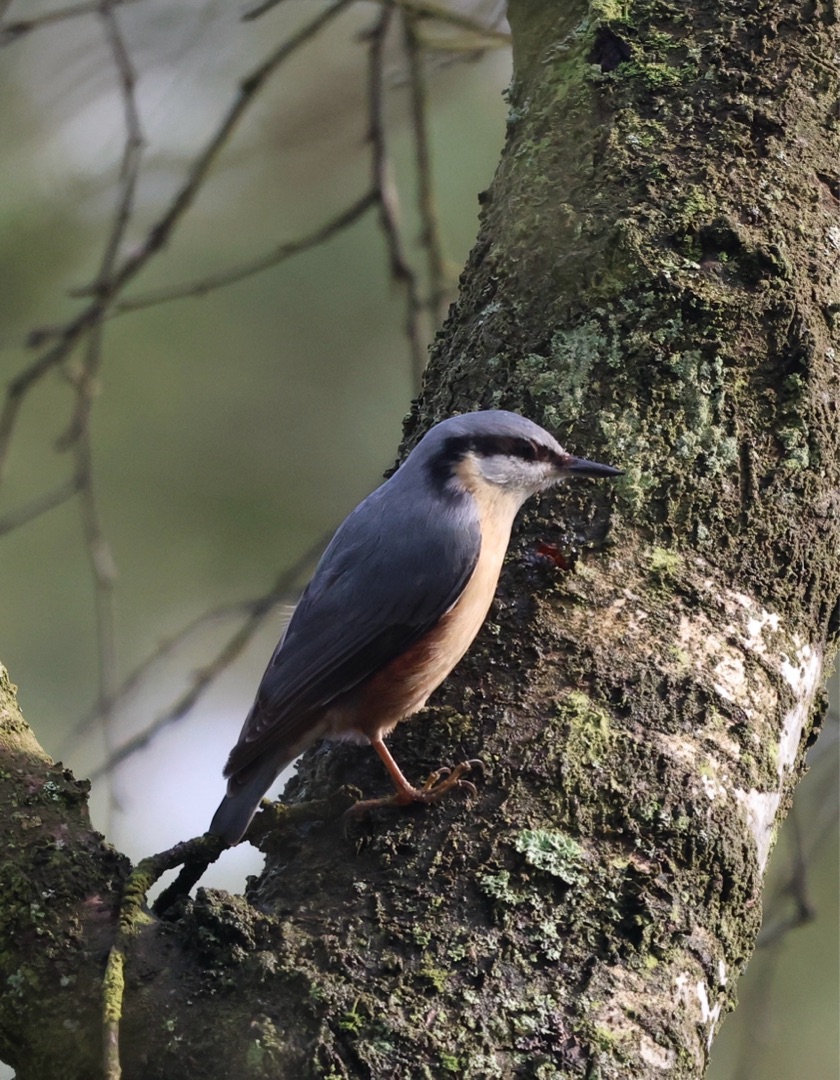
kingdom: Animalia
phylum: Chordata
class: Aves
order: Passeriformes
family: Sittidae
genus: Sitta
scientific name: Sitta europaea
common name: Spætmejse
